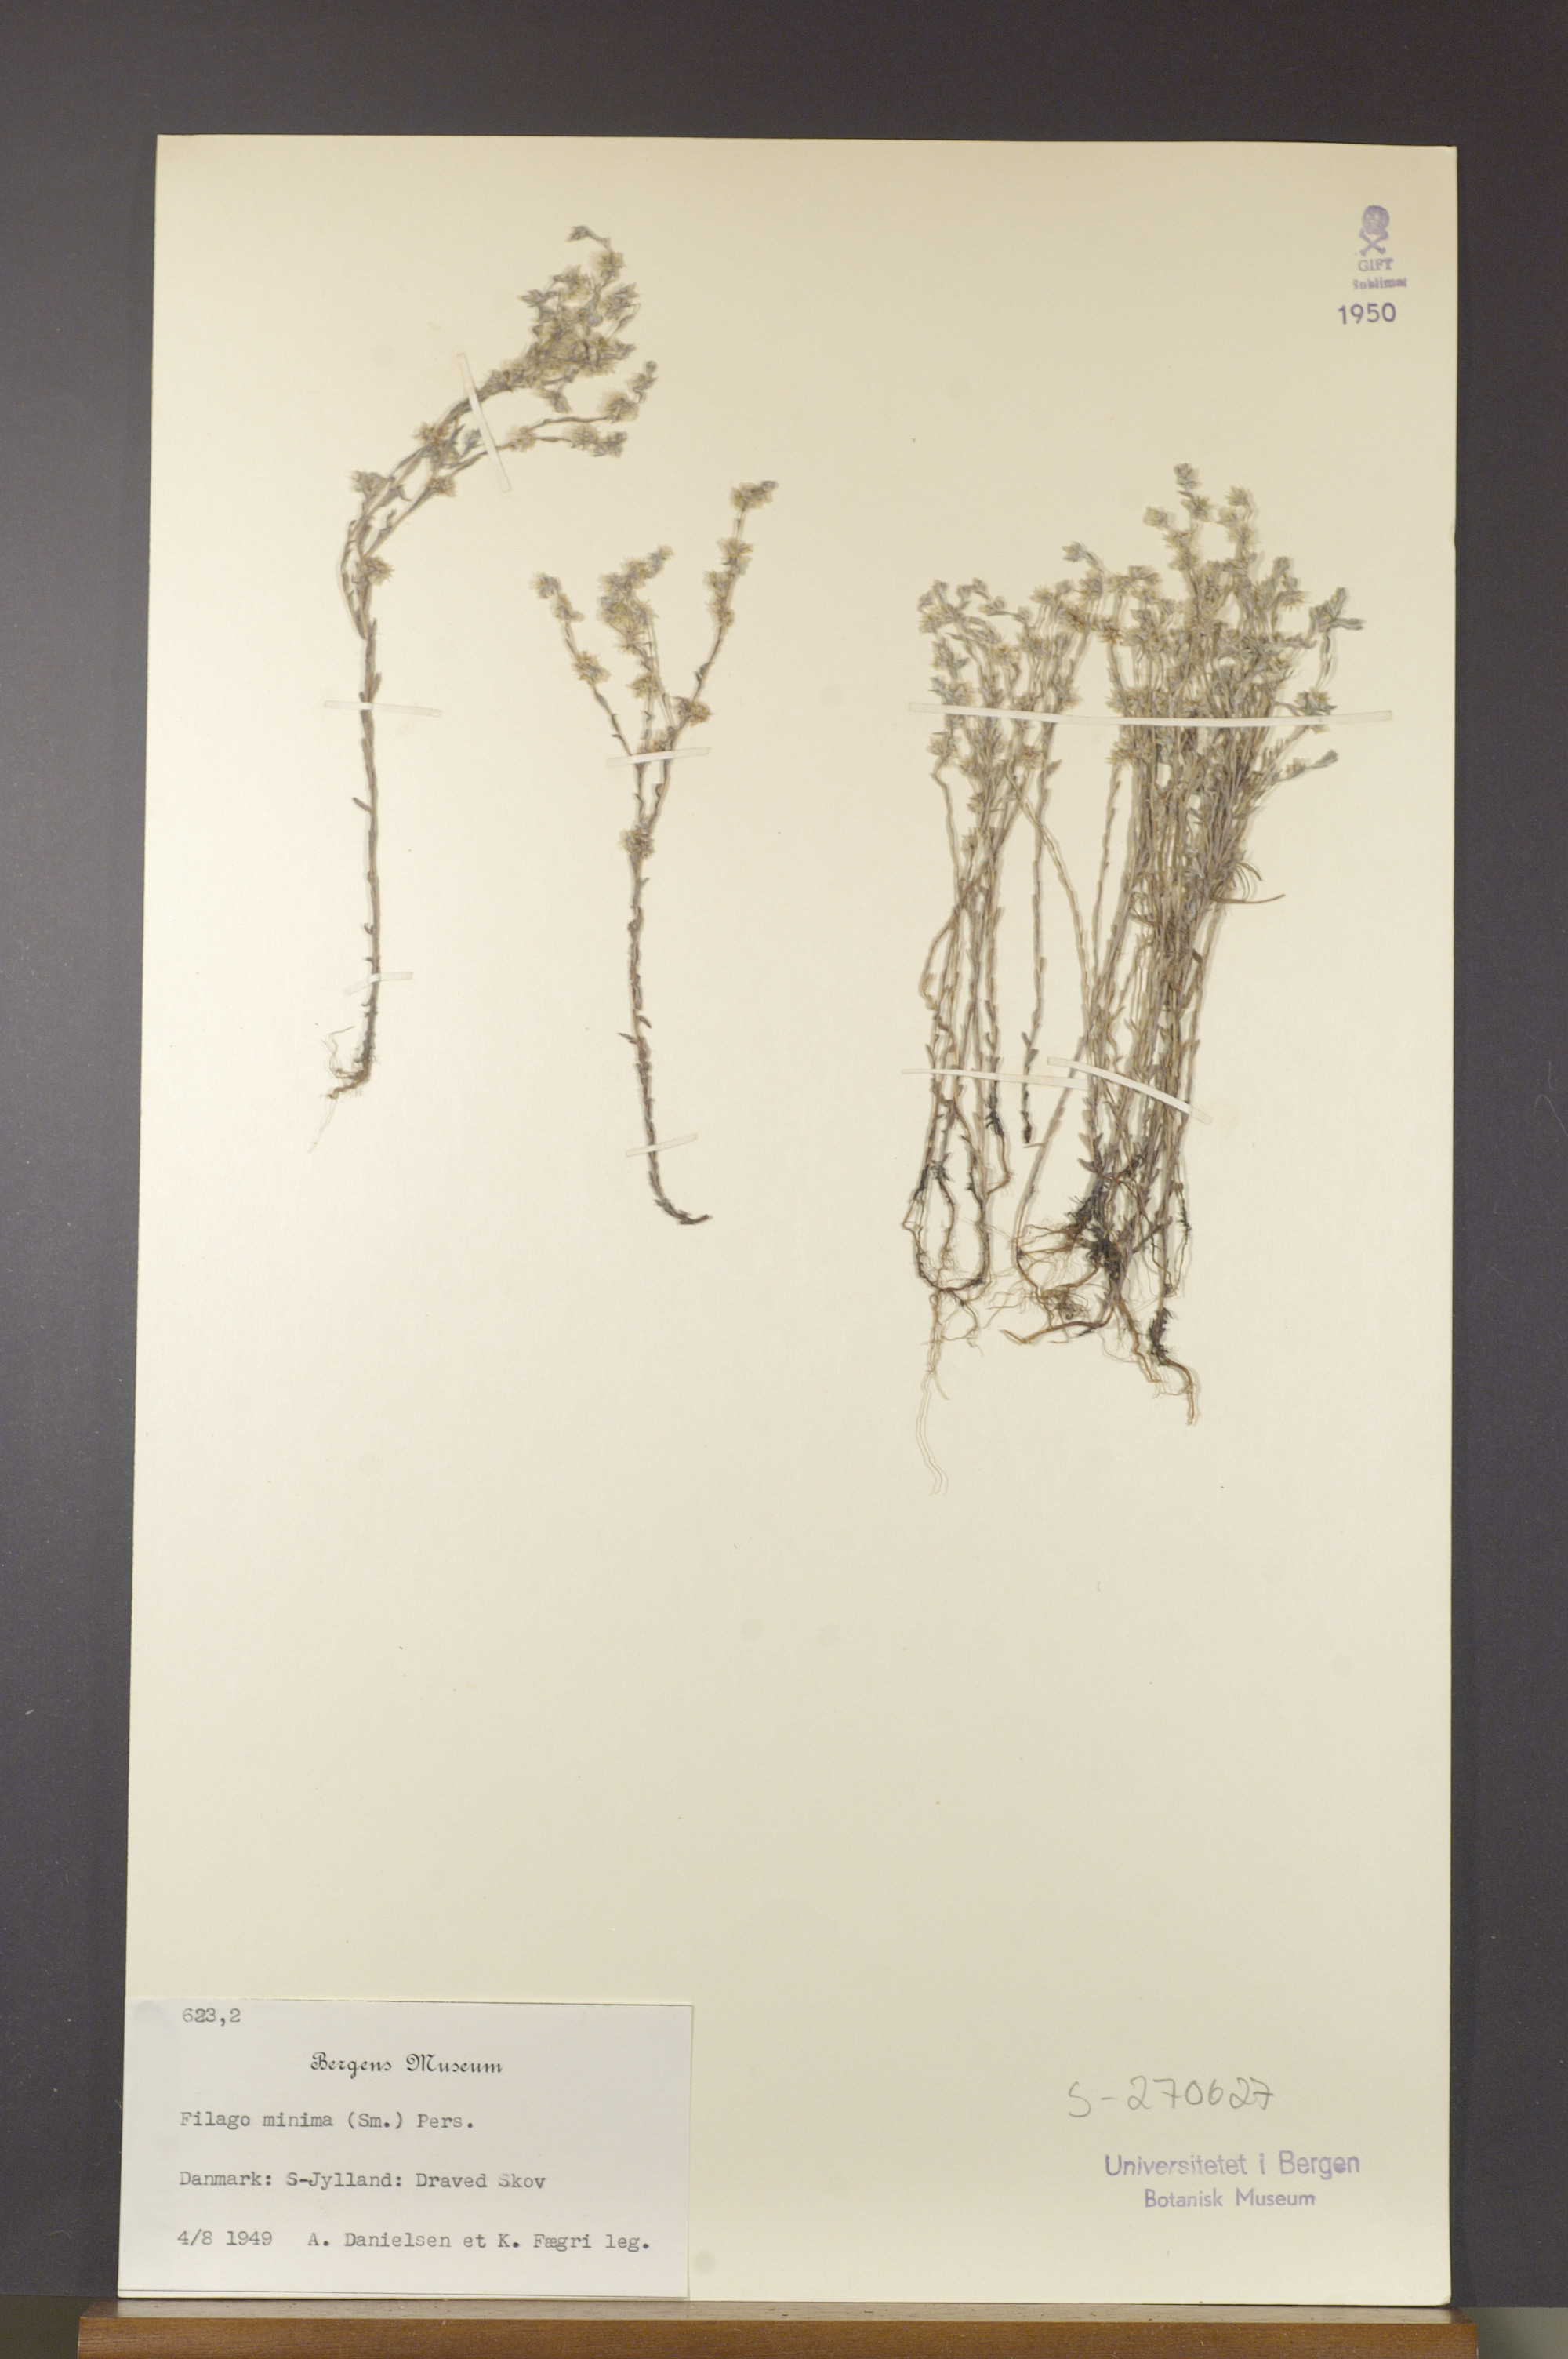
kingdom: Plantae
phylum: Tracheophyta
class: Magnoliopsida
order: Asterales
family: Asteraceae
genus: Logfia
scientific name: Logfia minima
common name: Little cottonrose
